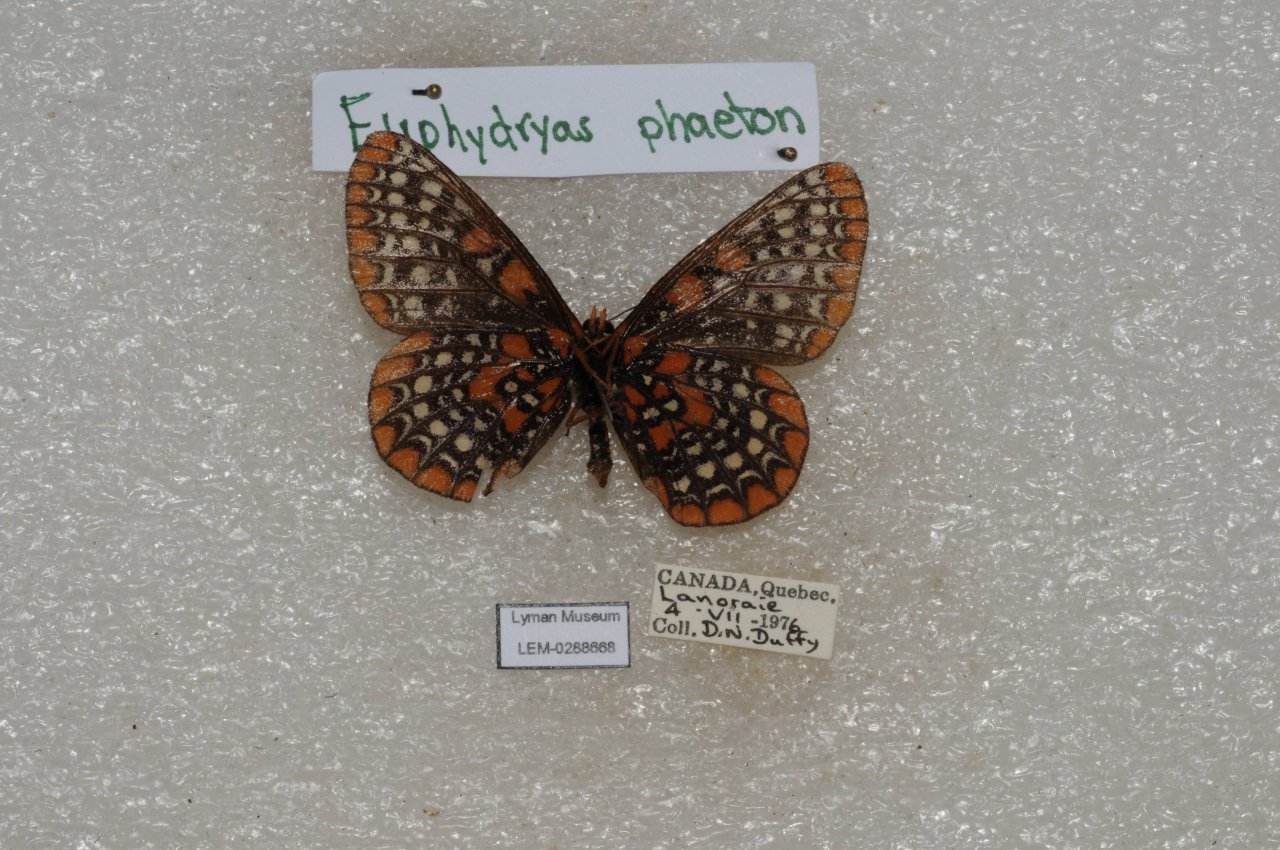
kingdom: Animalia
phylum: Arthropoda
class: Insecta
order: Lepidoptera
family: Nymphalidae
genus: Euphydryas
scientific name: Euphydryas phaeton
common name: Baltimore Checkerspot
